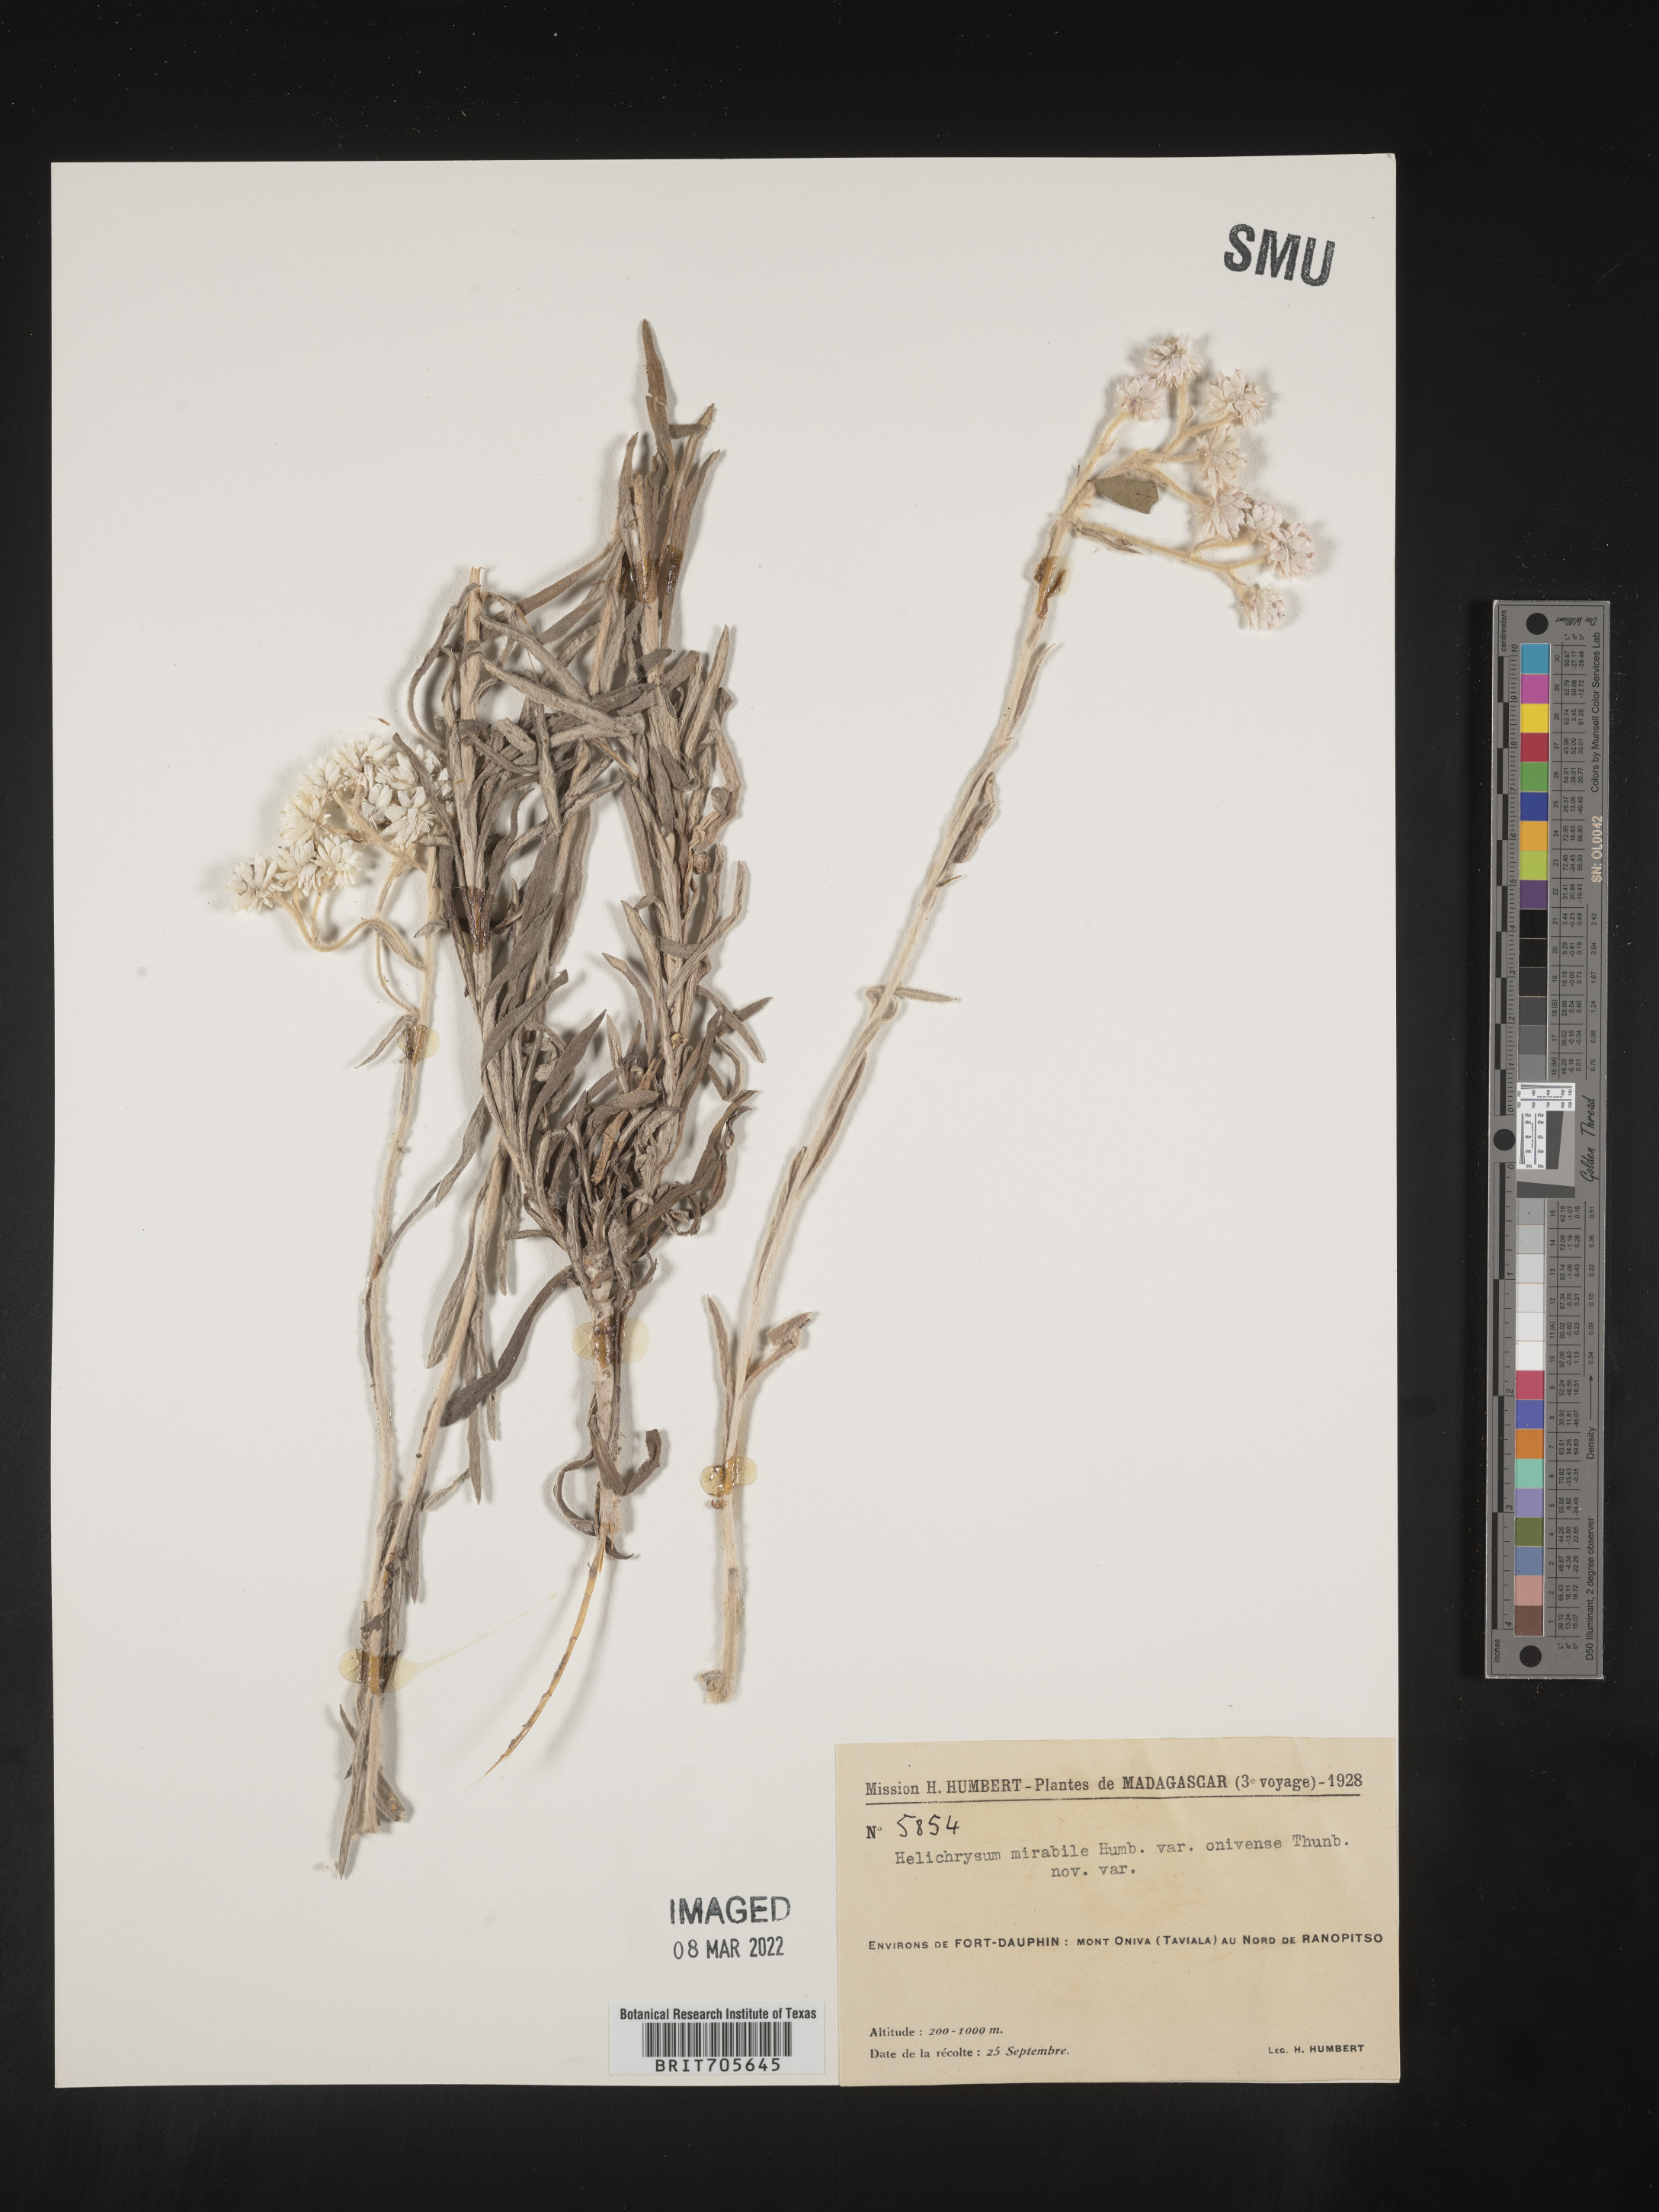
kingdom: Plantae
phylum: Tracheophyta
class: Magnoliopsida
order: Asterales
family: Asteraceae
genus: Helichrysum
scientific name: Helichrysum
